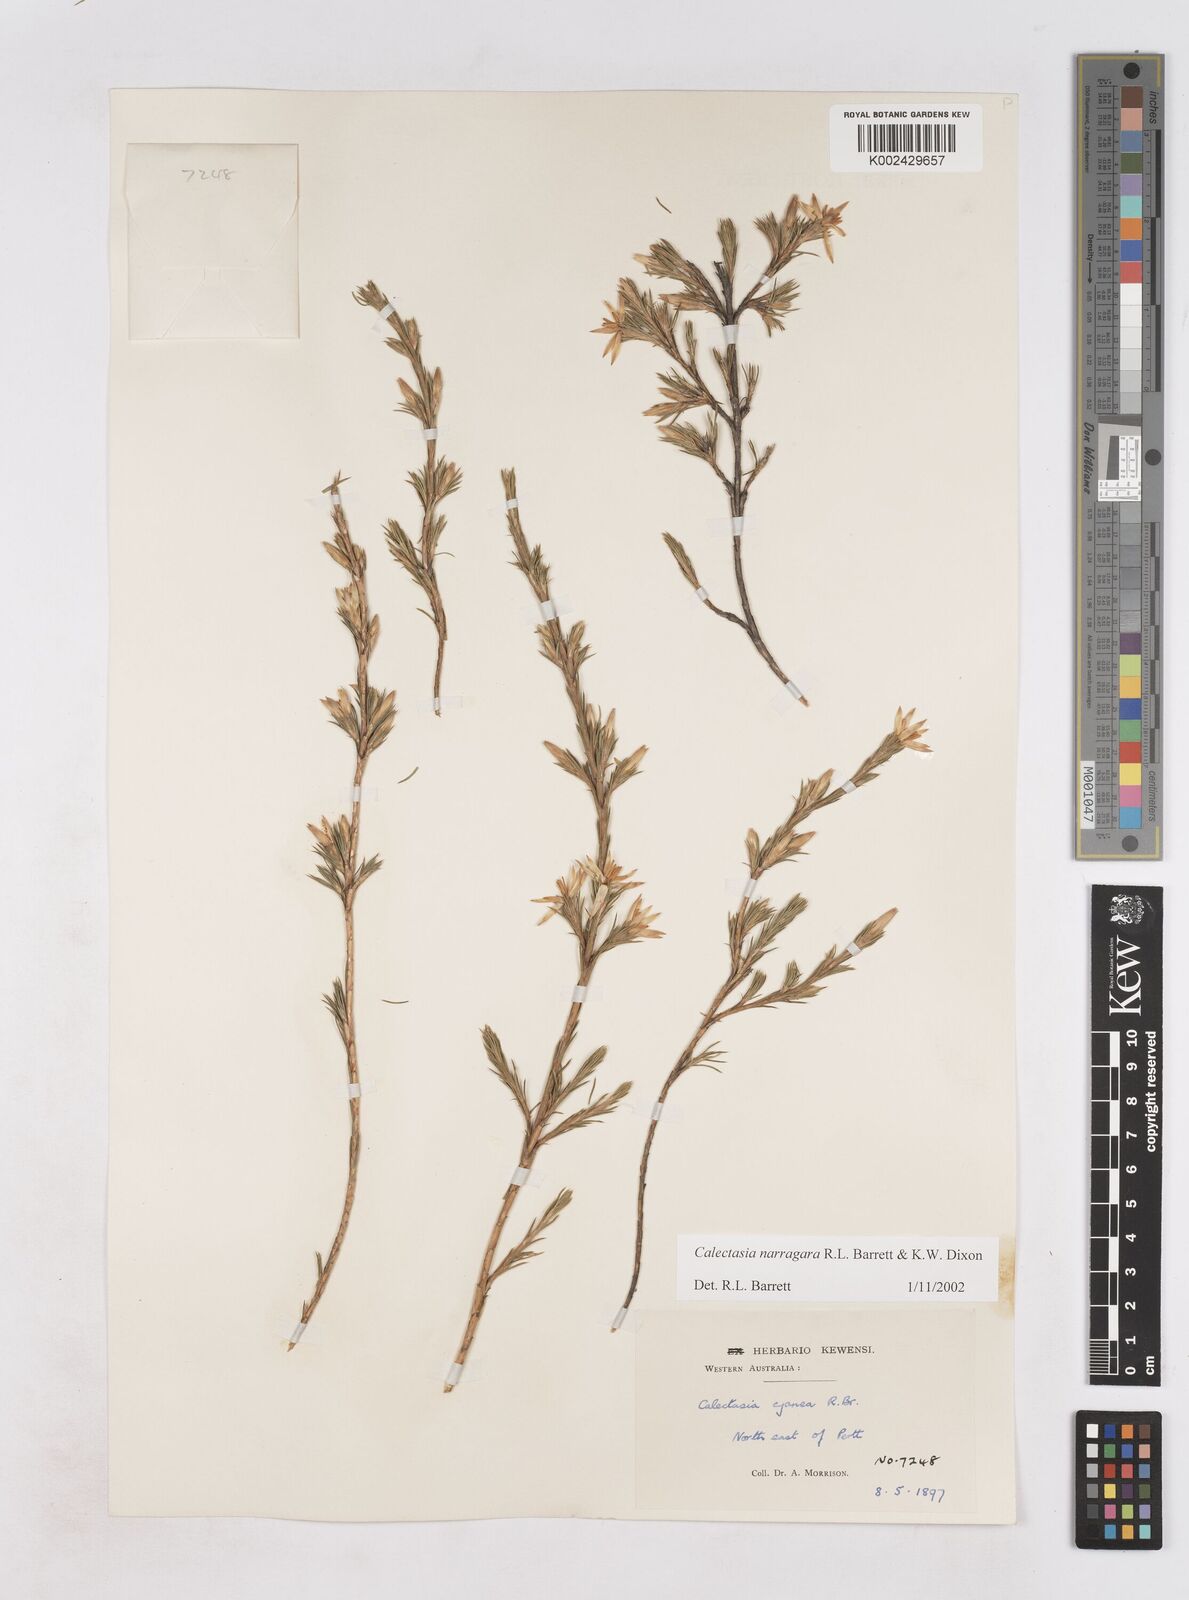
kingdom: Plantae
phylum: Tracheophyta
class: Liliopsida
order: Arecales
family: Dasypogonaceae
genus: Calectasia
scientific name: Calectasia narragara
